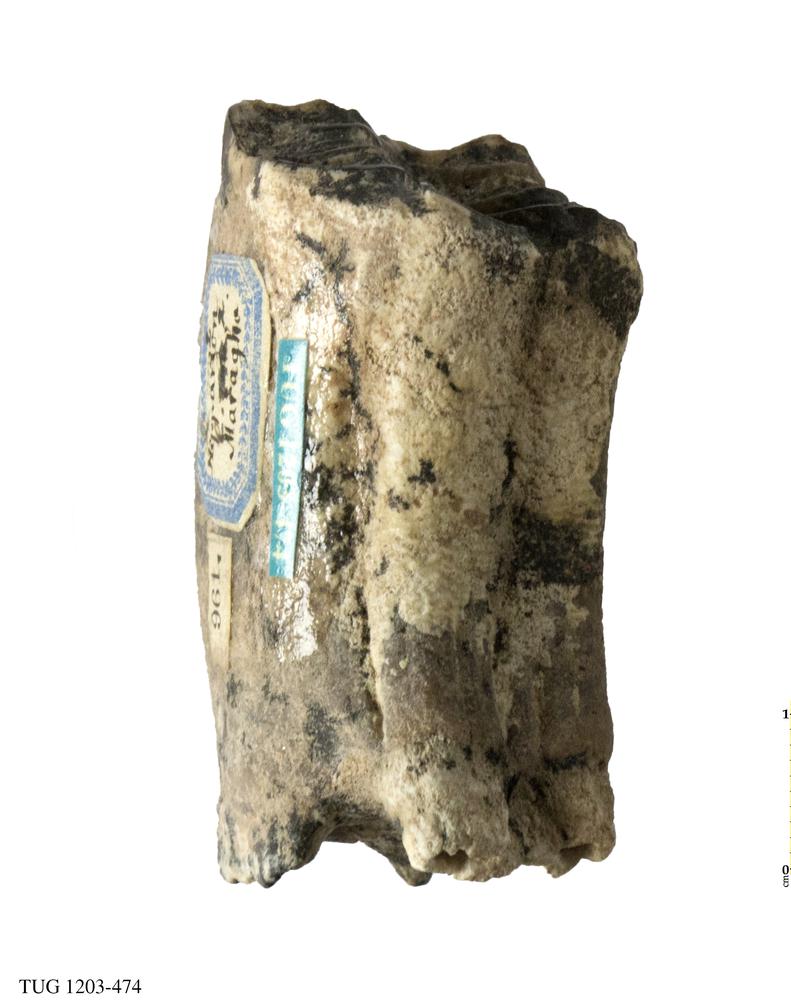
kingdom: Animalia
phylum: Chordata
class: Mammalia
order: Perissodactyla
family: Equidae
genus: Hipparion
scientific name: Hipparion
